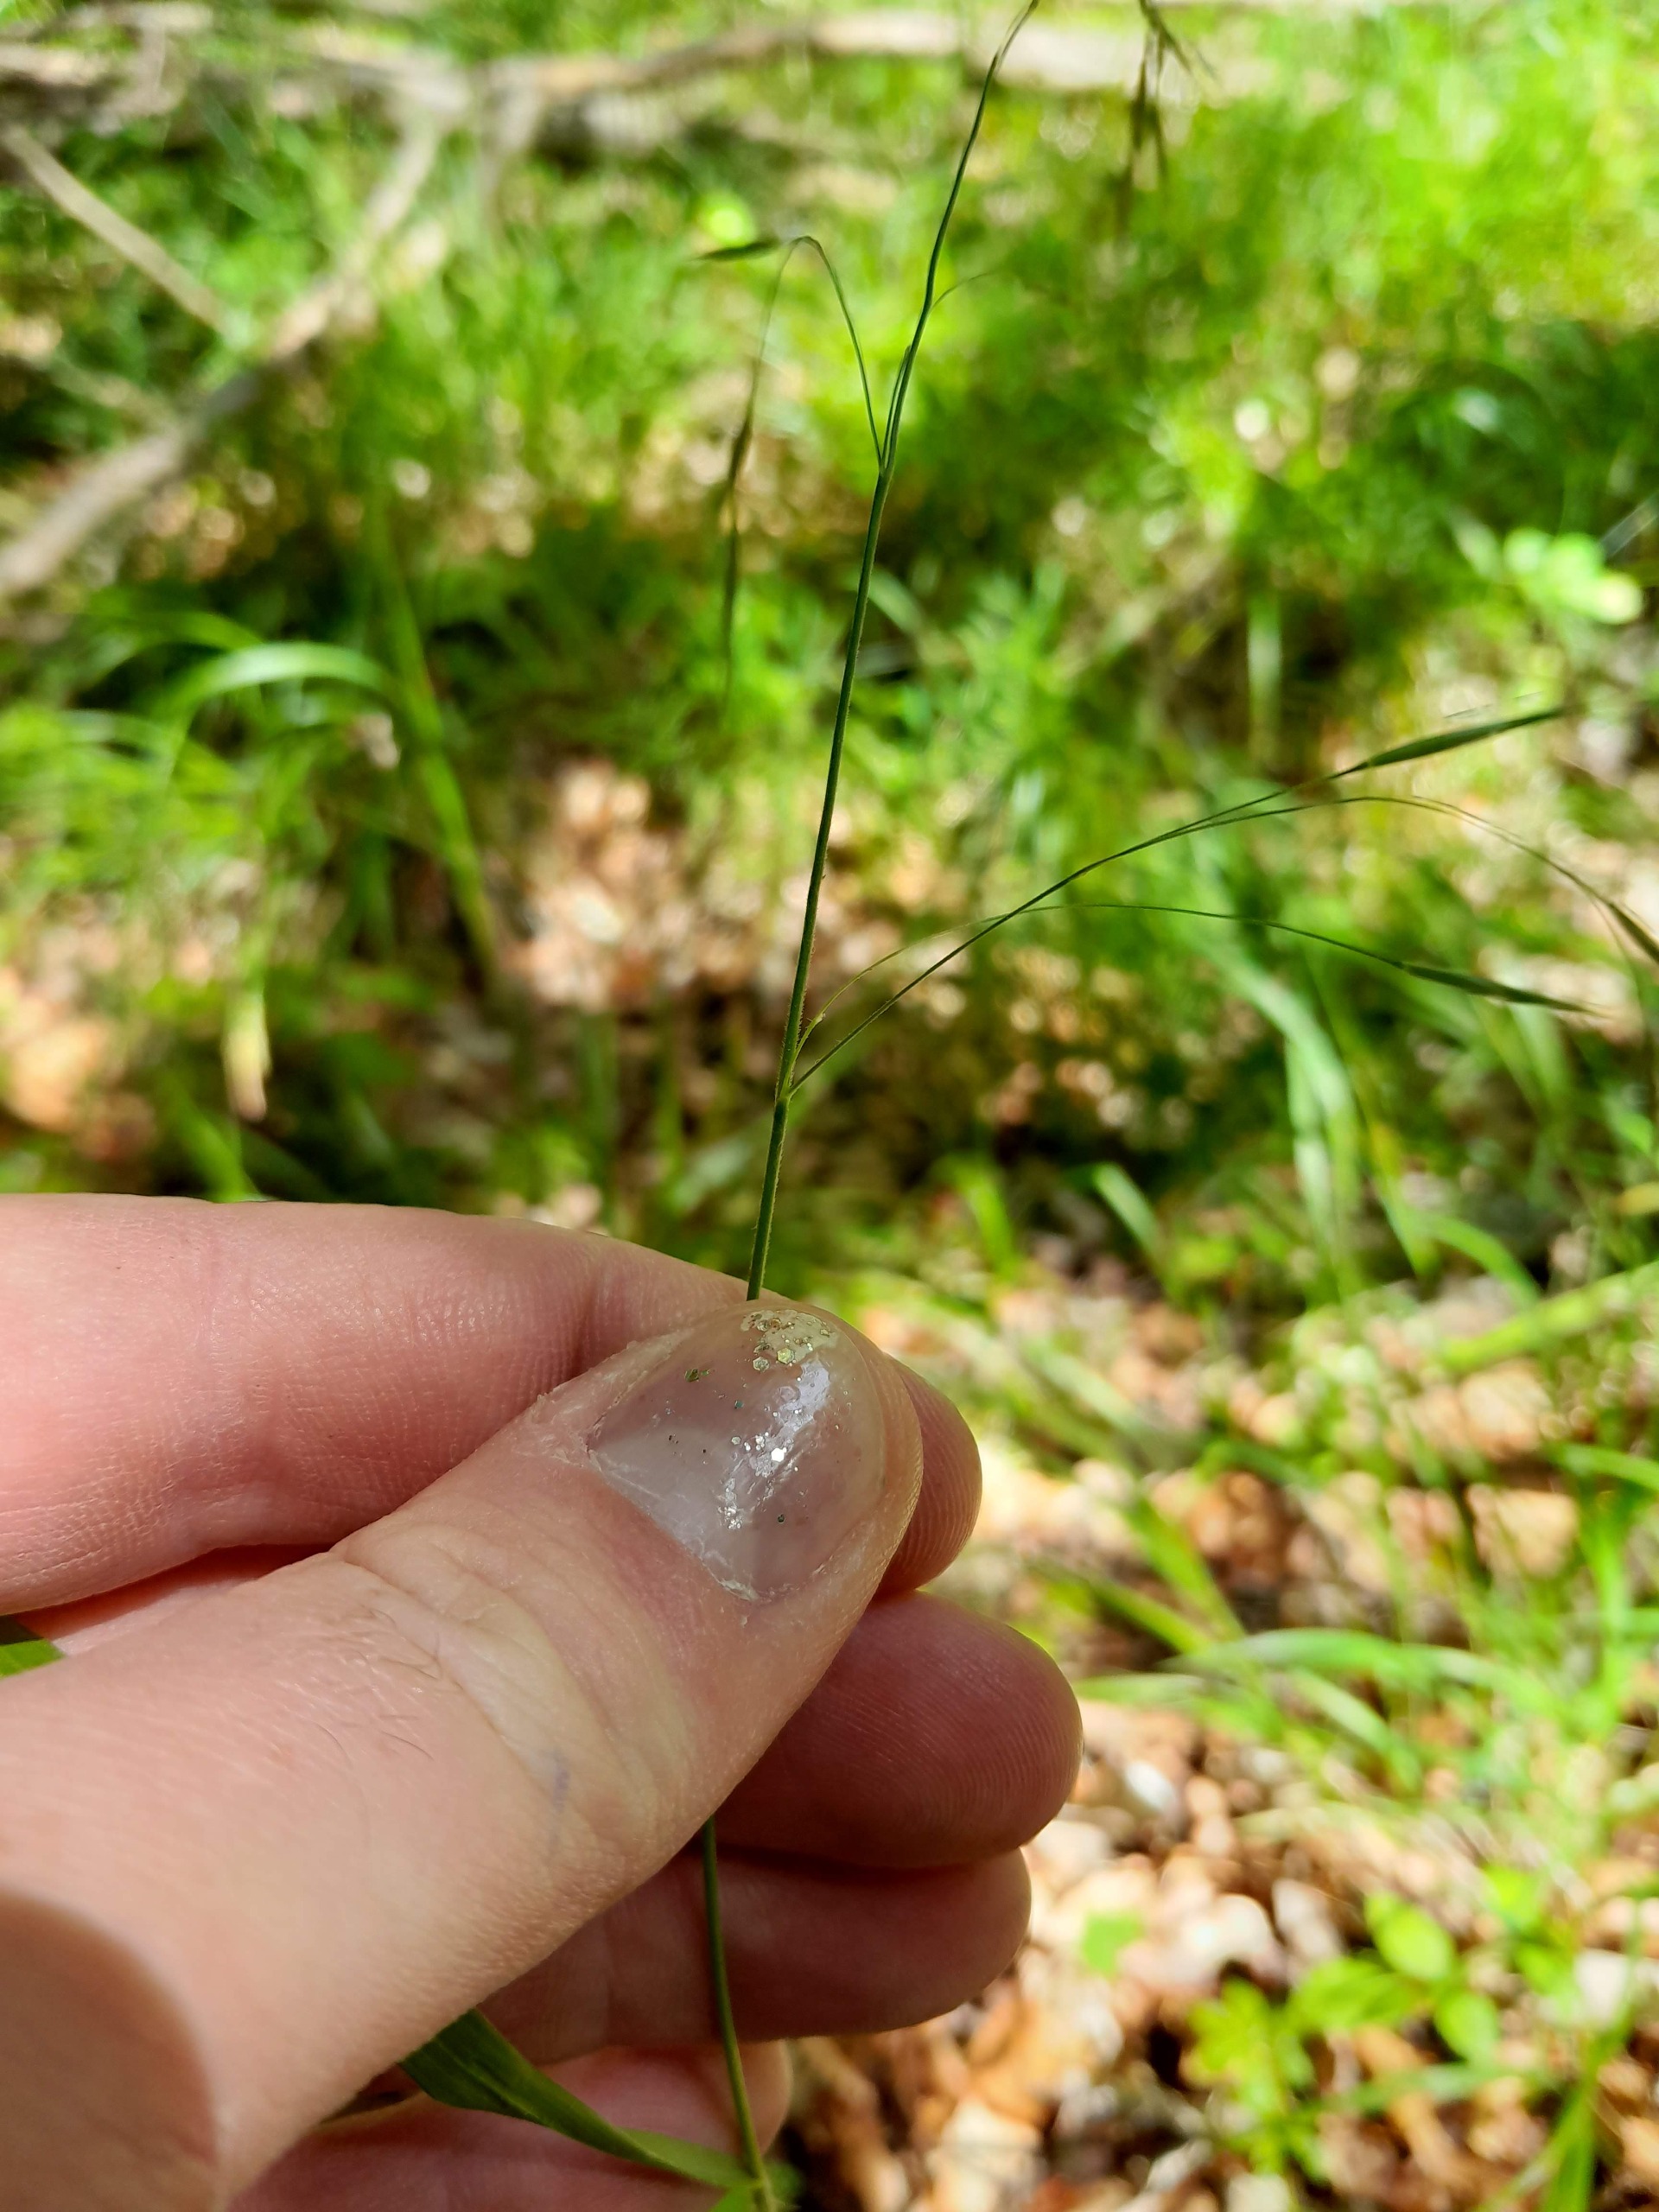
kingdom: Plantae
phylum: Tracheophyta
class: Liliopsida
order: Poales
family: Poaceae
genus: Bromus
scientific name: Bromus ramosus
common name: Sildig skov-hejre
